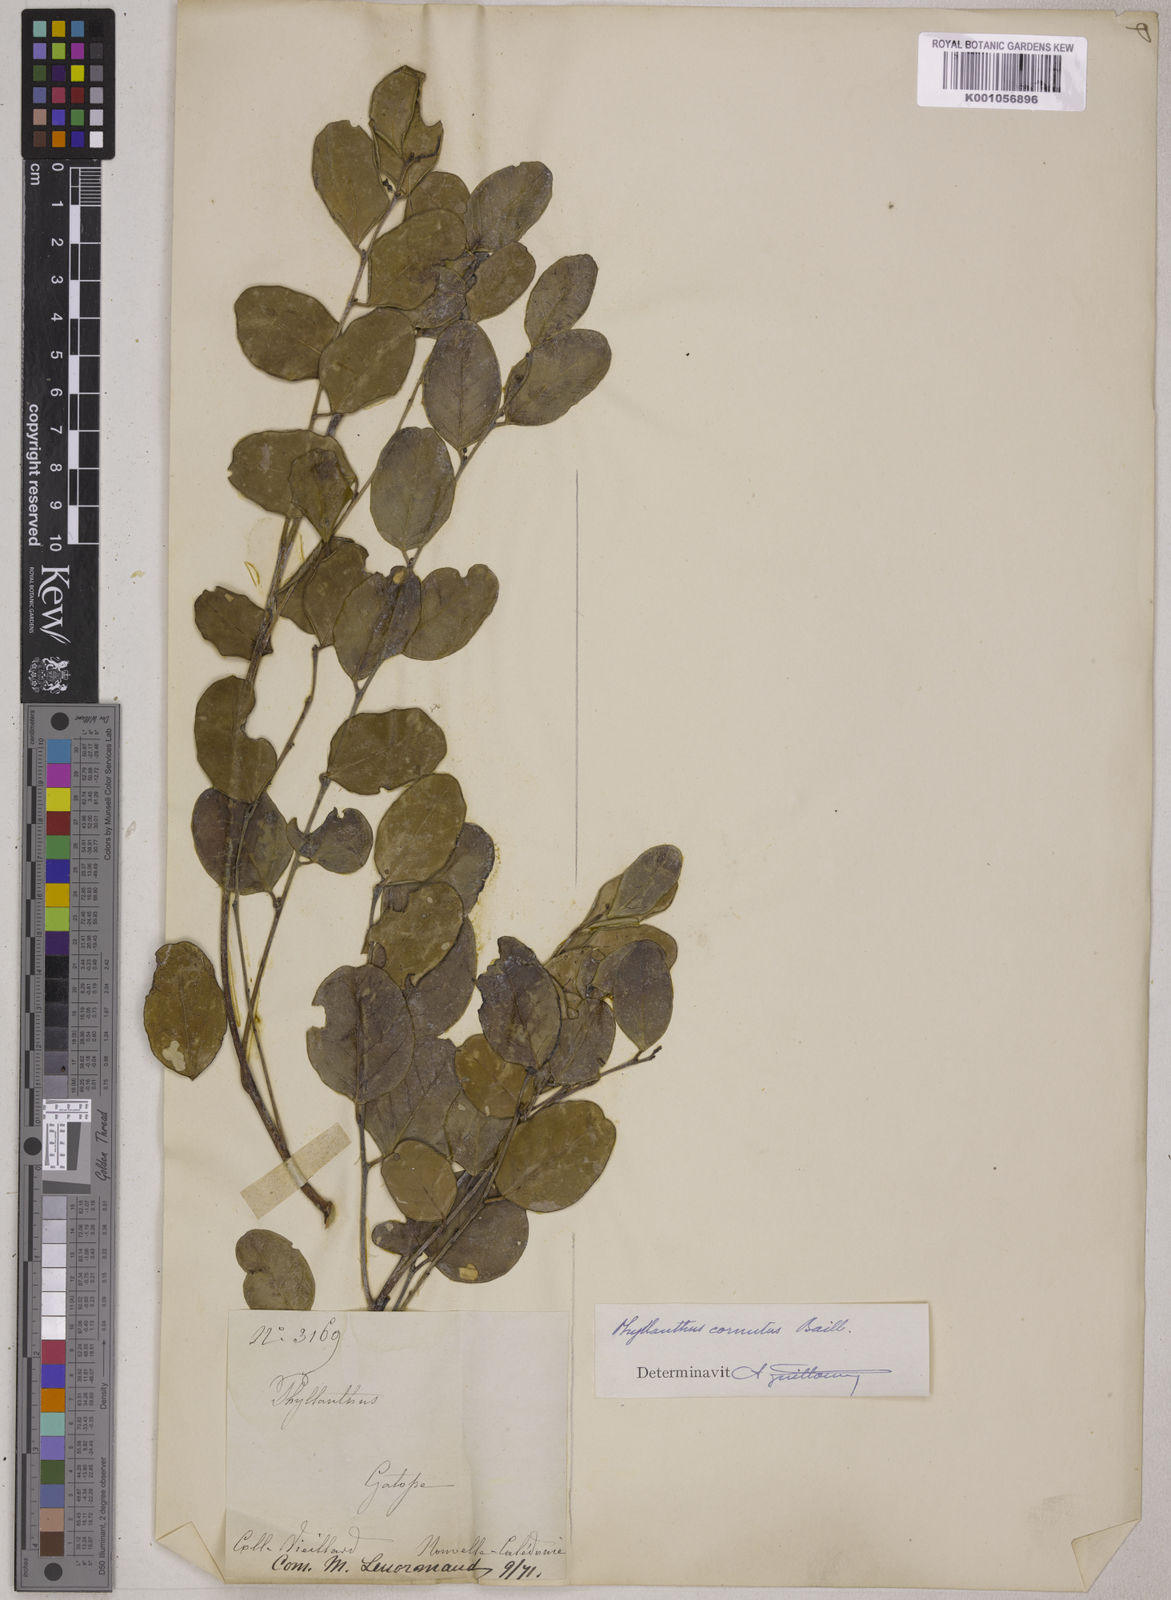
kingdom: Plantae
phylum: Tracheophyta
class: Magnoliopsida
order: Malpighiales
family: Phyllanthaceae
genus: Phyllanthus
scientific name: Phyllanthus cornutus
